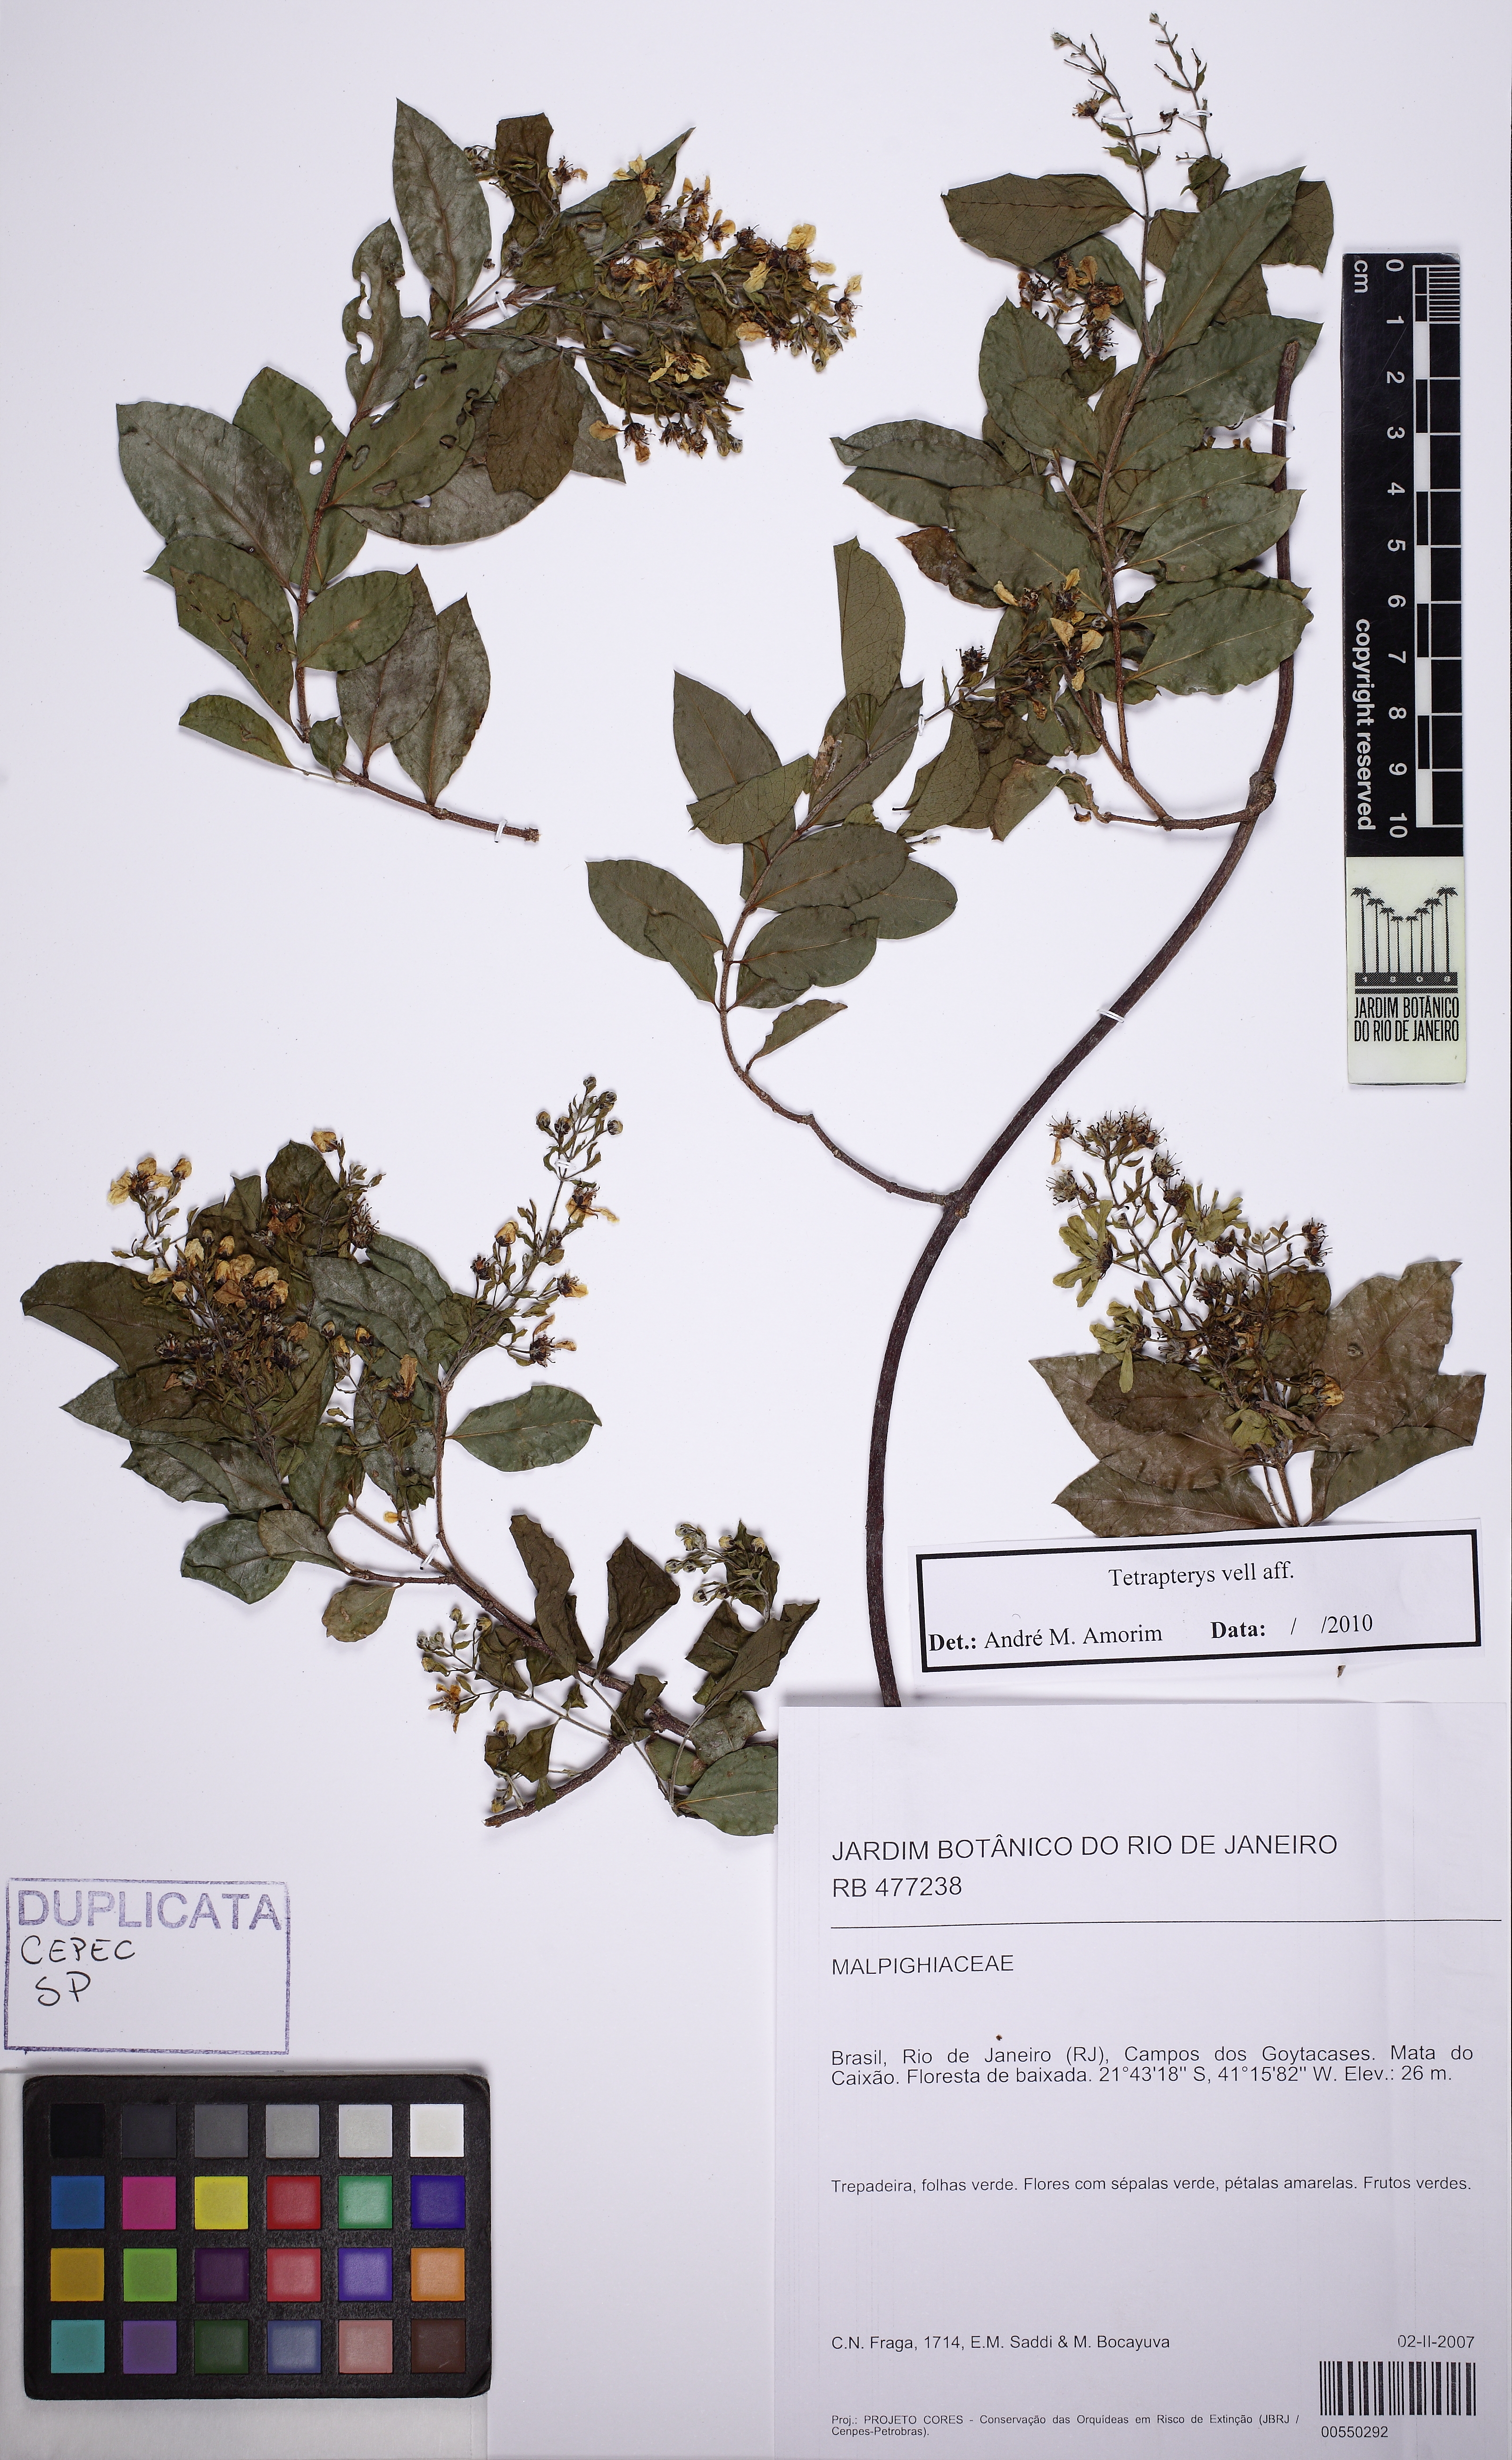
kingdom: Plantae
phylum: Tracheophyta
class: Magnoliopsida
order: Malpighiales
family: Malpighiaceae
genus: Niedenzuella
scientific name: Niedenzuella
